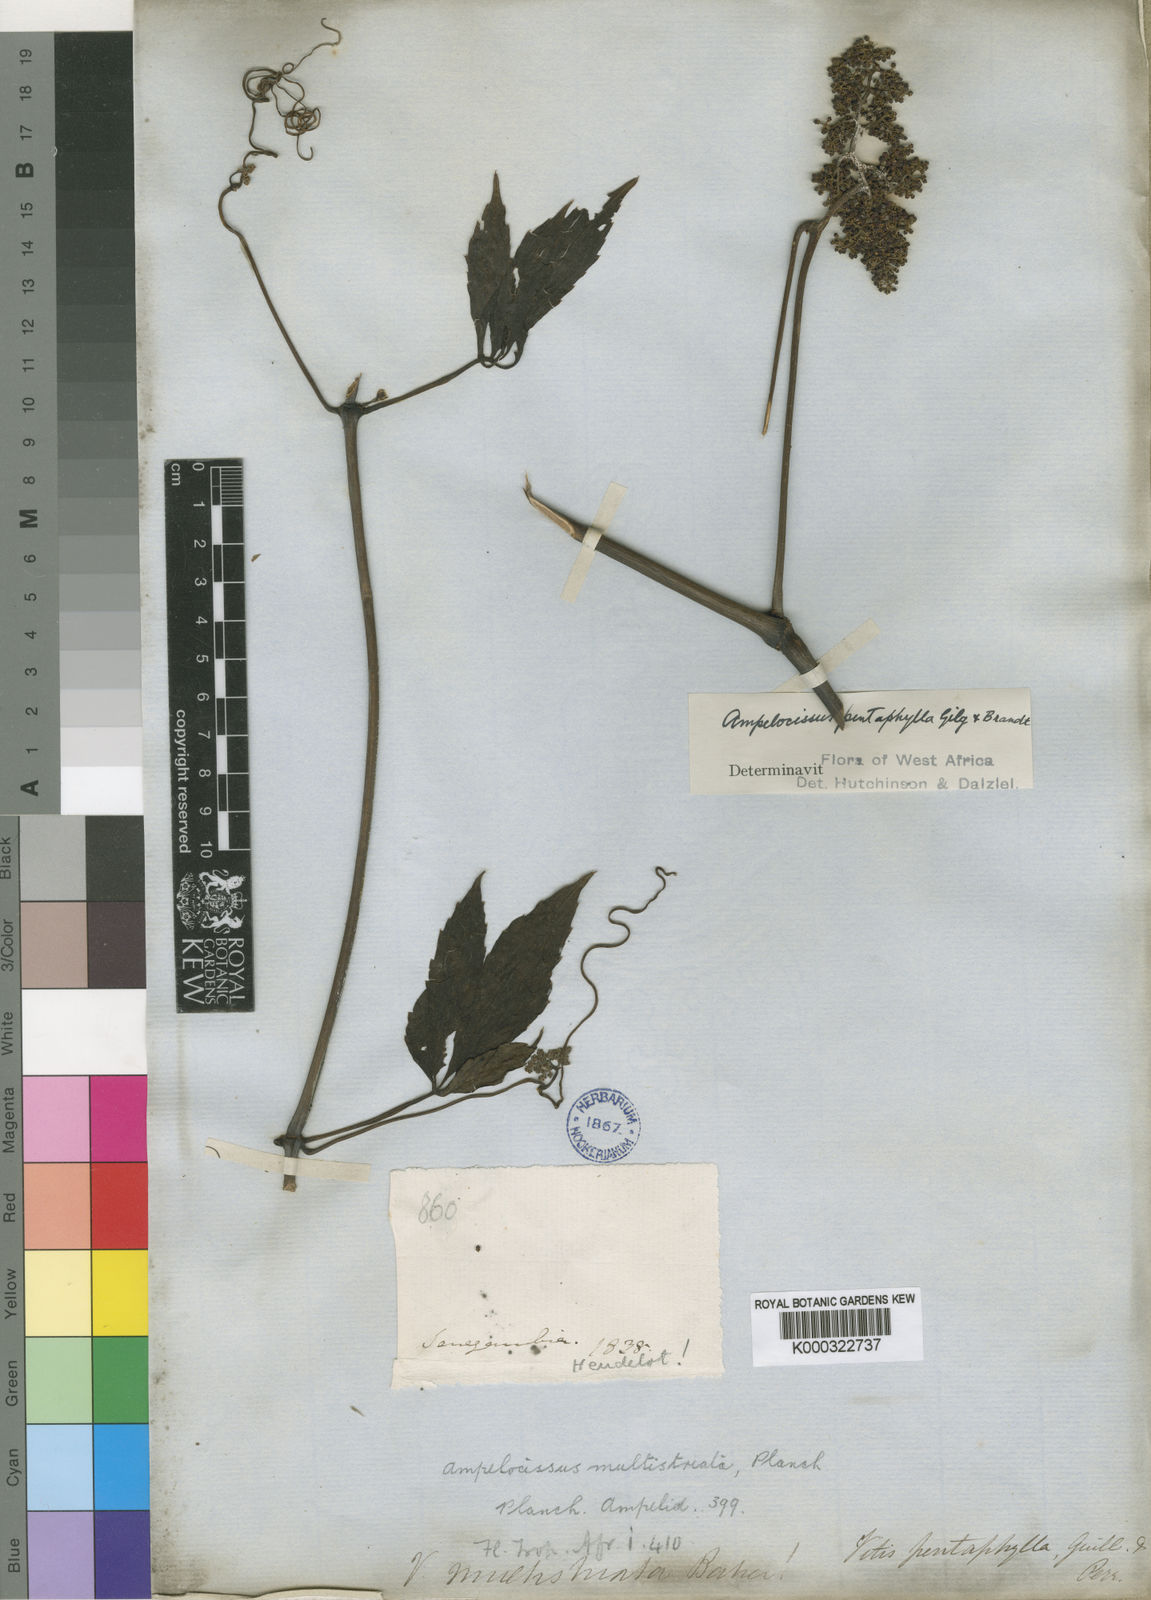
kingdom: Plantae
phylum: Tracheophyta
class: Magnoliopsida
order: Vitales
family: Vitaceae
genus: Ampelocissus
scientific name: Ampelocissus multistriata
